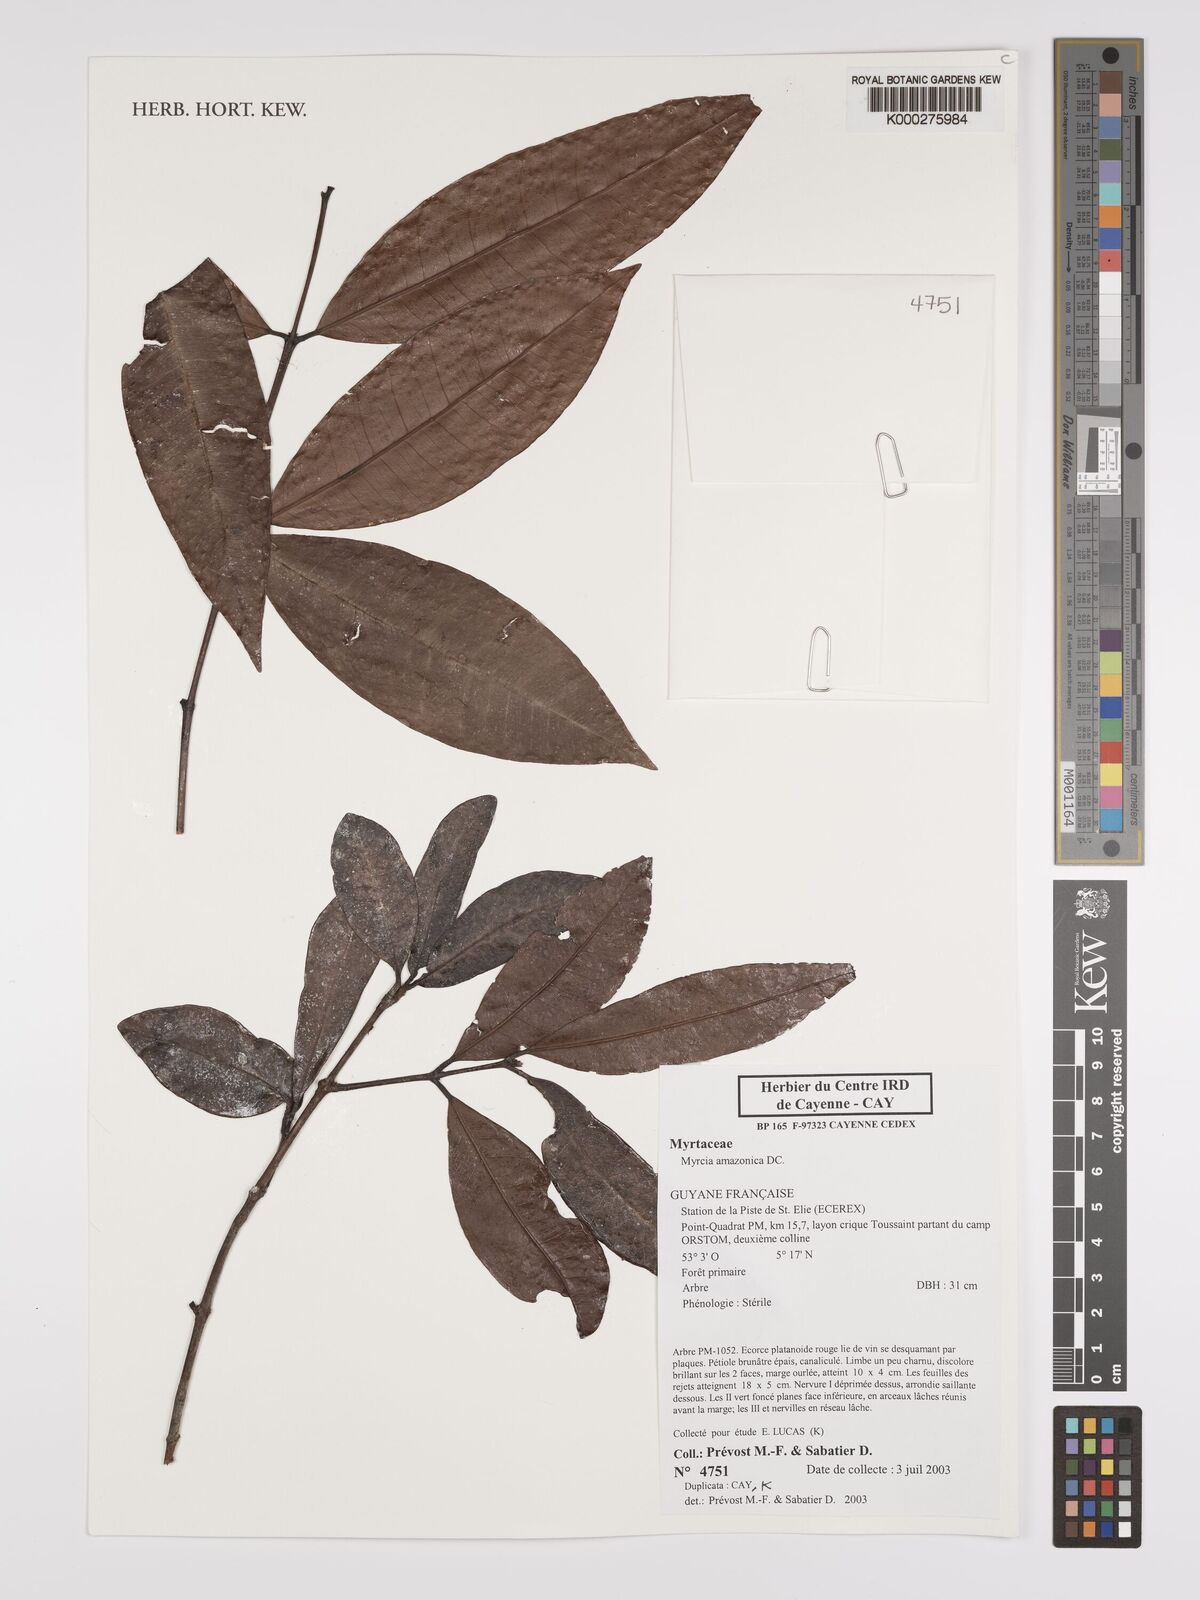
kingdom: Plantae
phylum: Tracheophyta
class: Magnoliopsida
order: Myrtales
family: Myrtaceae
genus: Myrcia
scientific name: Myrcia amazonica
